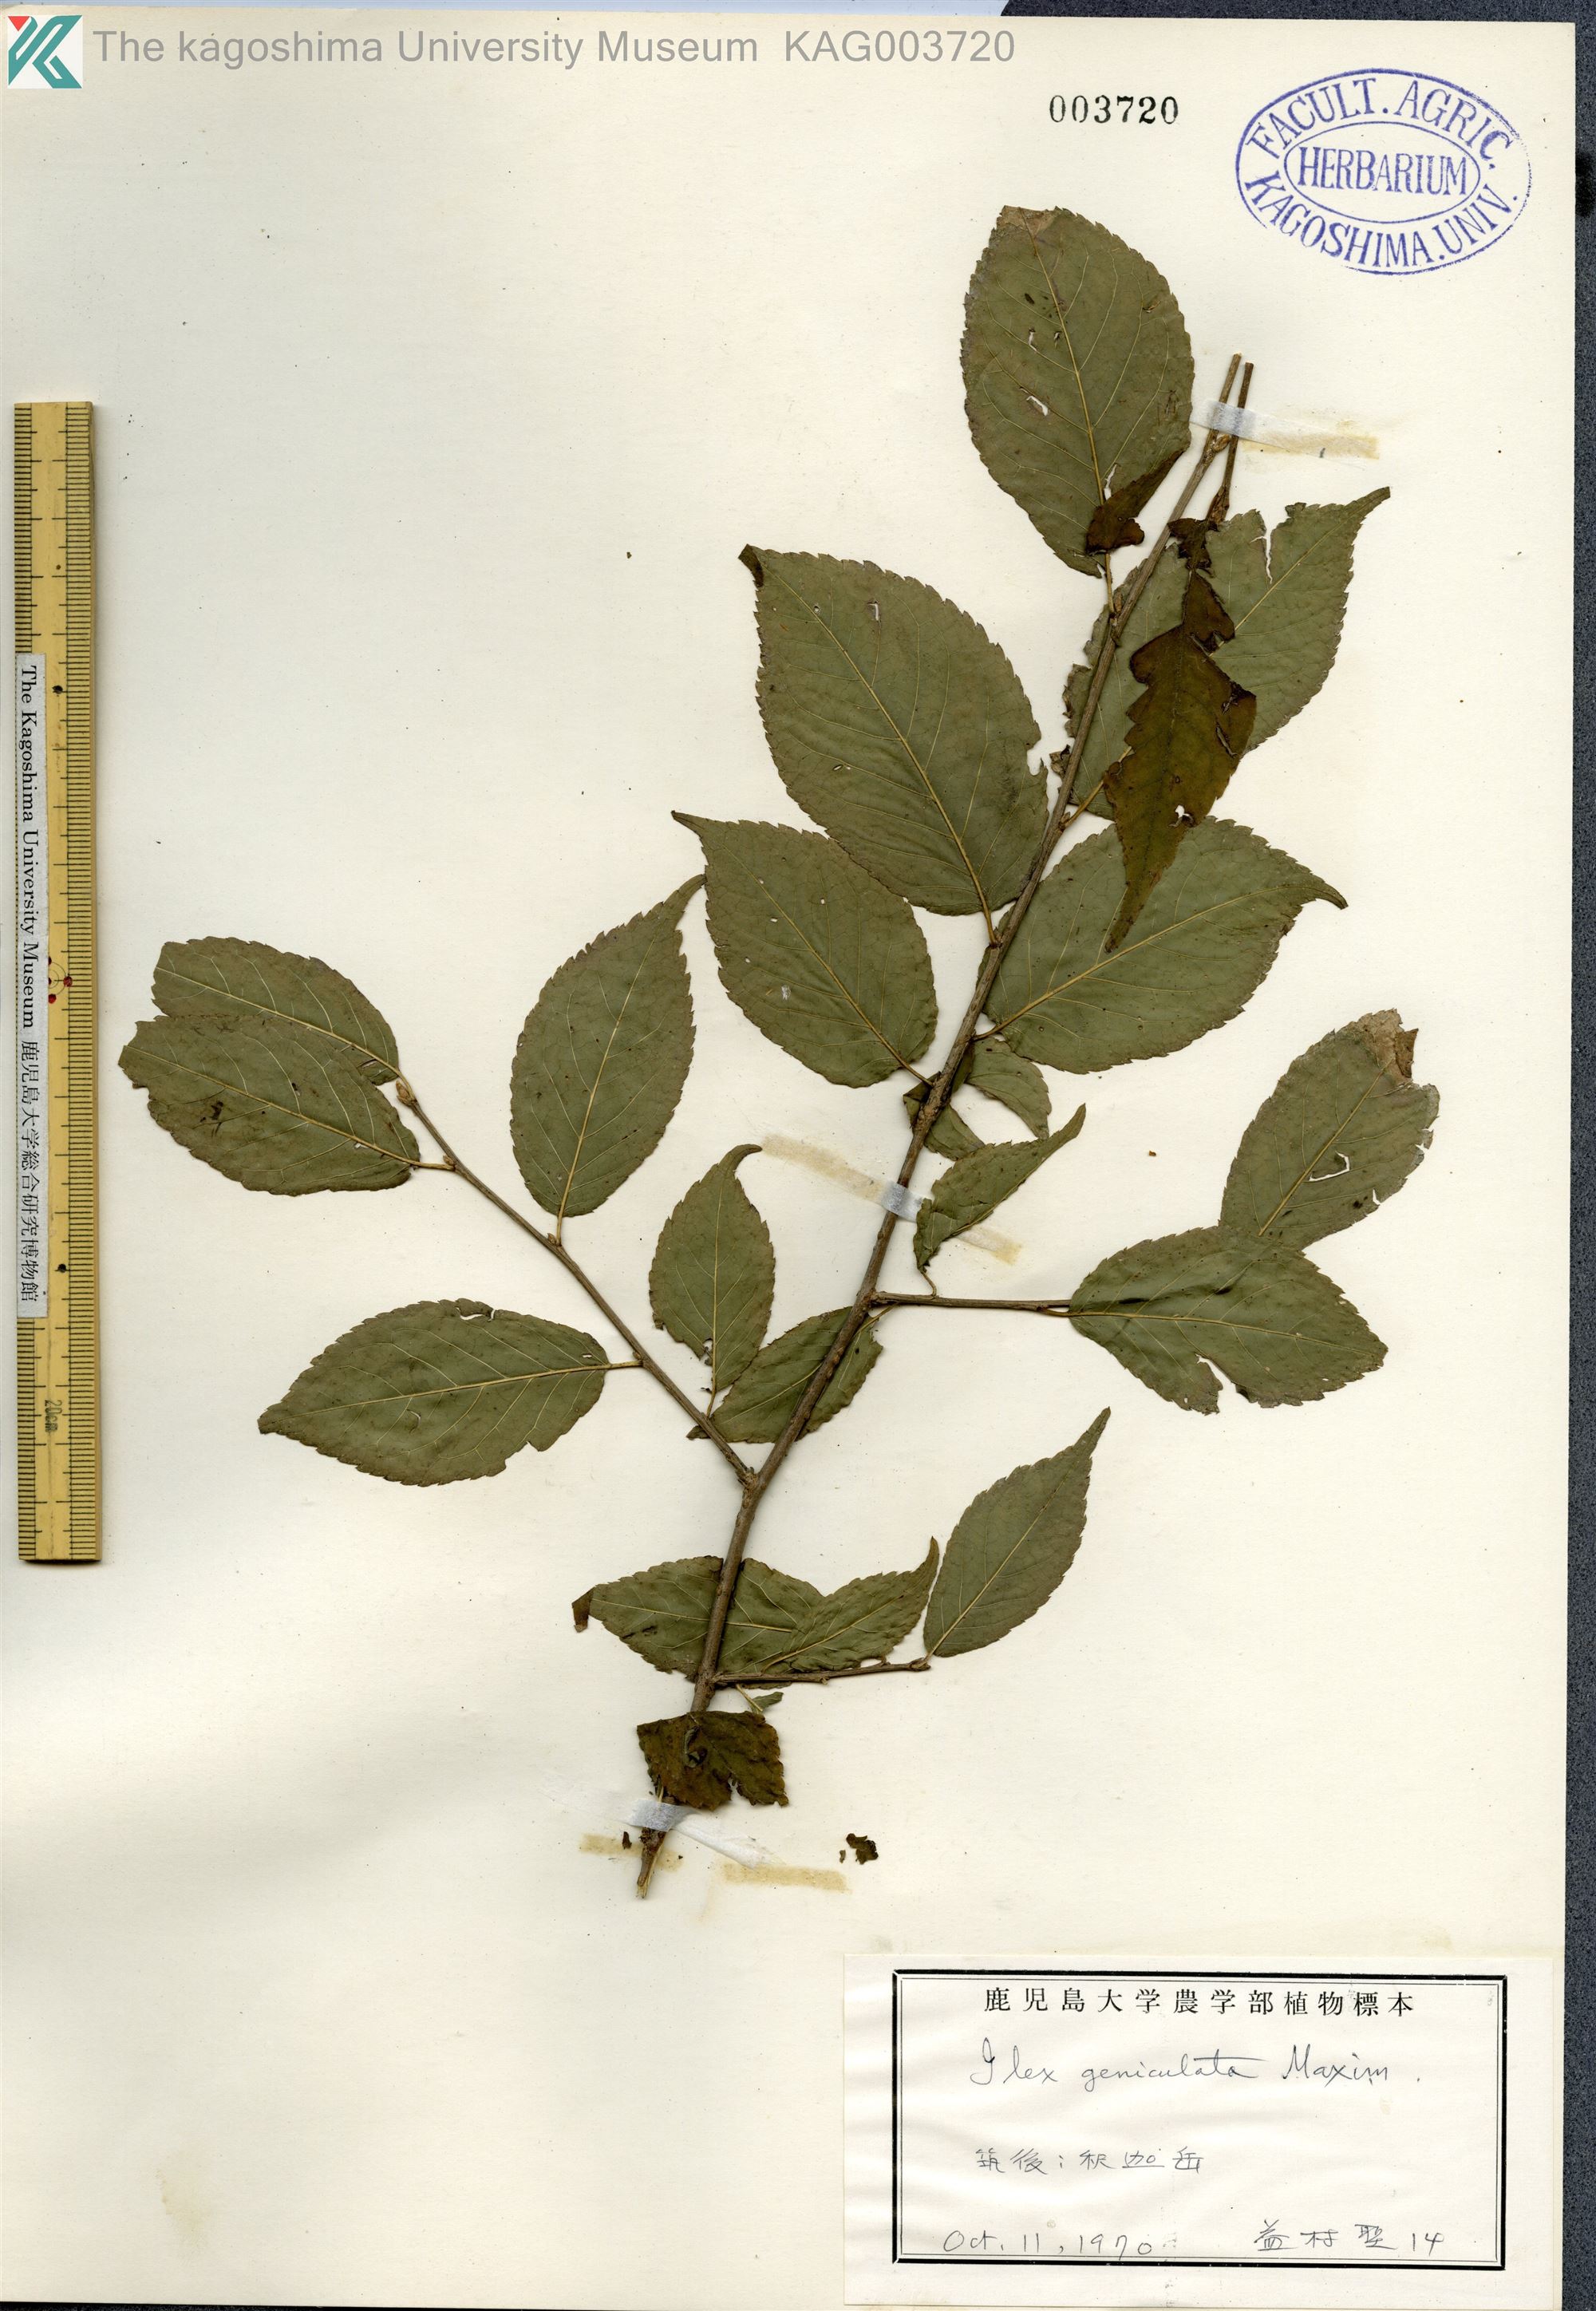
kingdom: Plantae
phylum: Tracheophyta
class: Magnoliopsida
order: Aquifoliales
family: Aquifoliaceae
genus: Ilex
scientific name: Ilex geniculata
